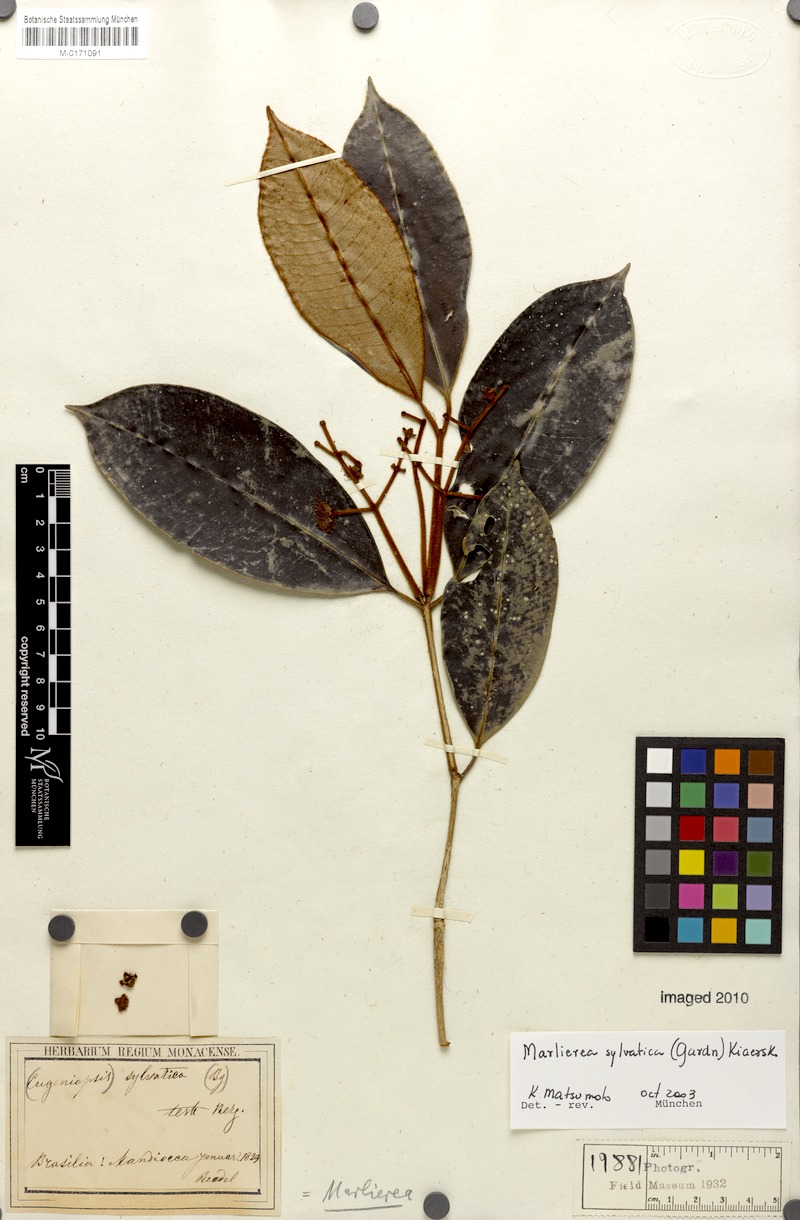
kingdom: Plantae
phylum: Tracheophyta
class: Magnoliopsida
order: Myrtales
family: Myrtaceae
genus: Myrcia
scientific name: Myrcia ferruginosa
